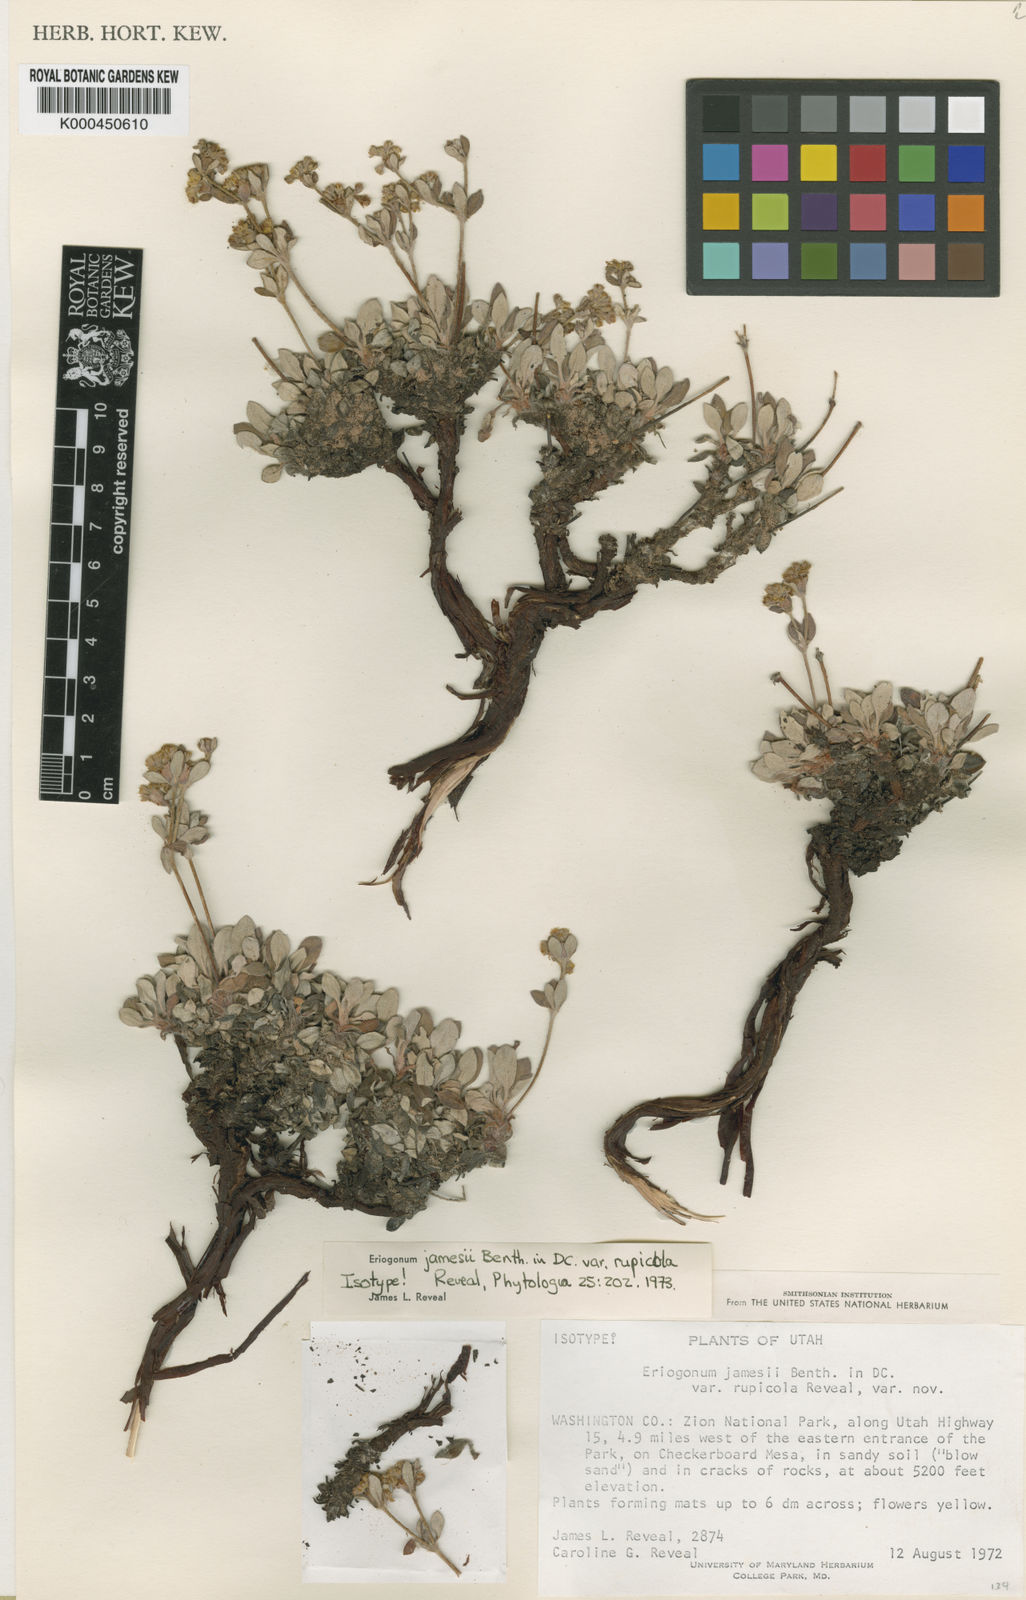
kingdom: Plantae
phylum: Tracheophyta
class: Magnoliopsida
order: Caryophyllales
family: Polygonaceae
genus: Eriogonum
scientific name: Eriogonum arcuatum
